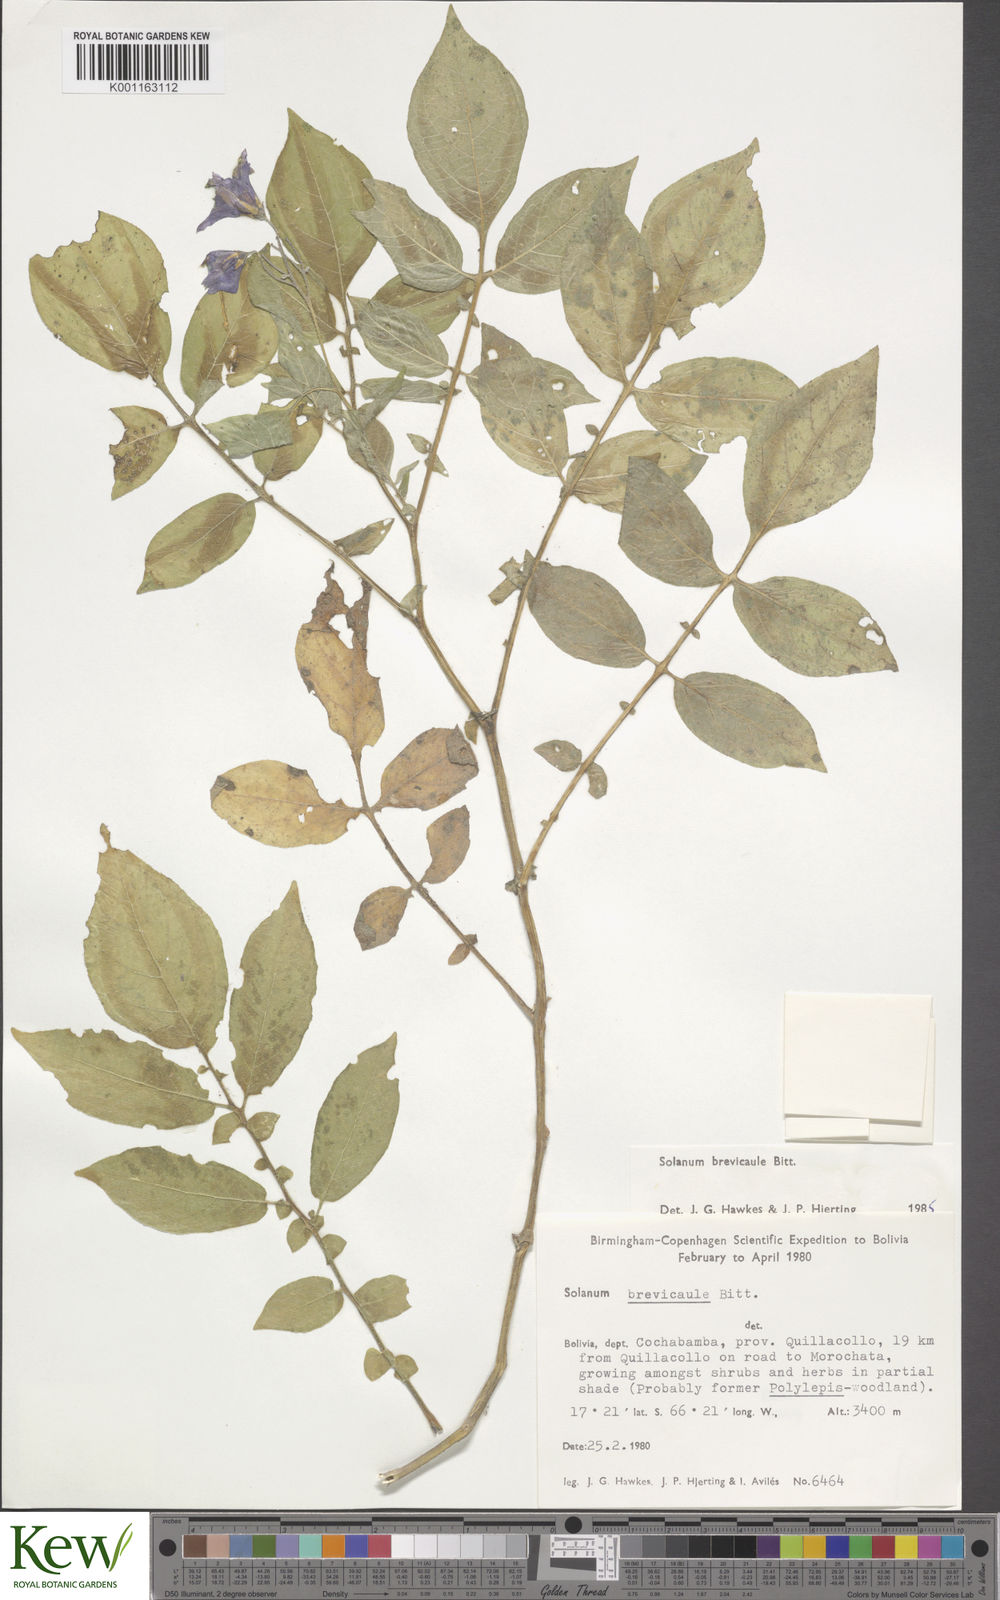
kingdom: Plantae
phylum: Tracheophyta
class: Magnoliopsida
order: Solanales
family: Solanaceae
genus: Solanum
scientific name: Solanum brevicaule
